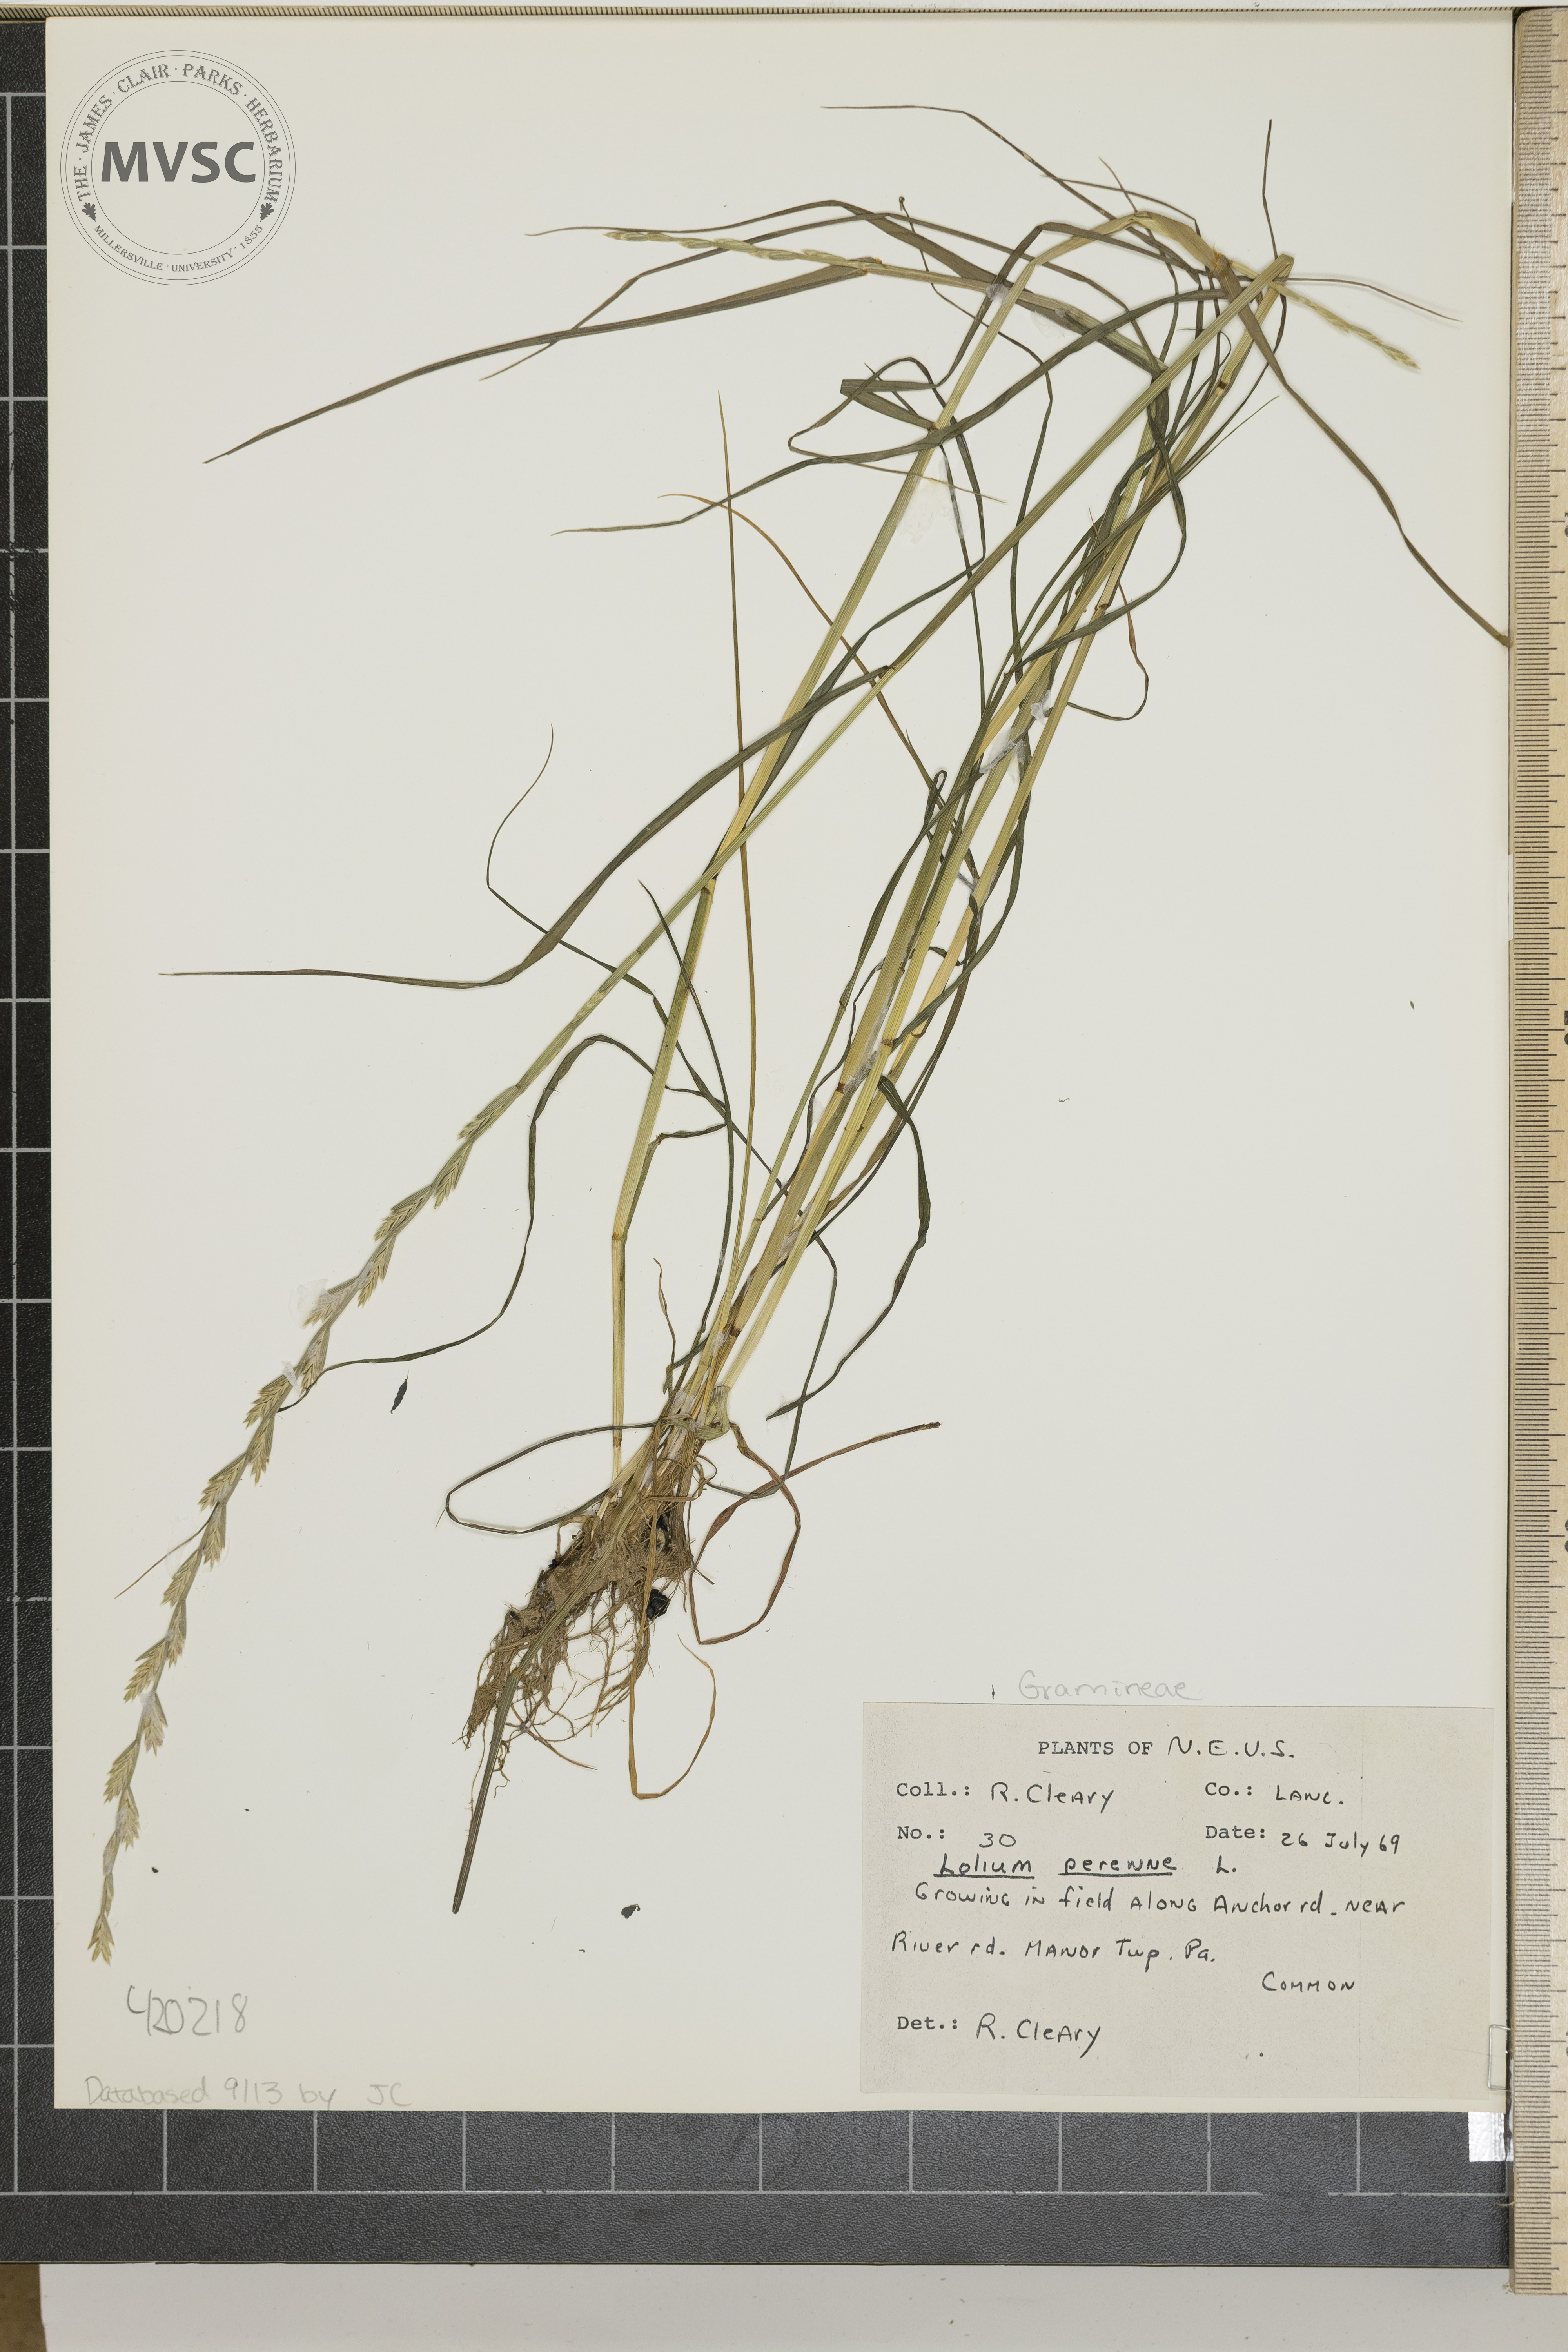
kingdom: Plantae
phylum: Tracheophyta
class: Liliopsida
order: Poales
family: Poaceae
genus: Lolium
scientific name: Lolium perenne
